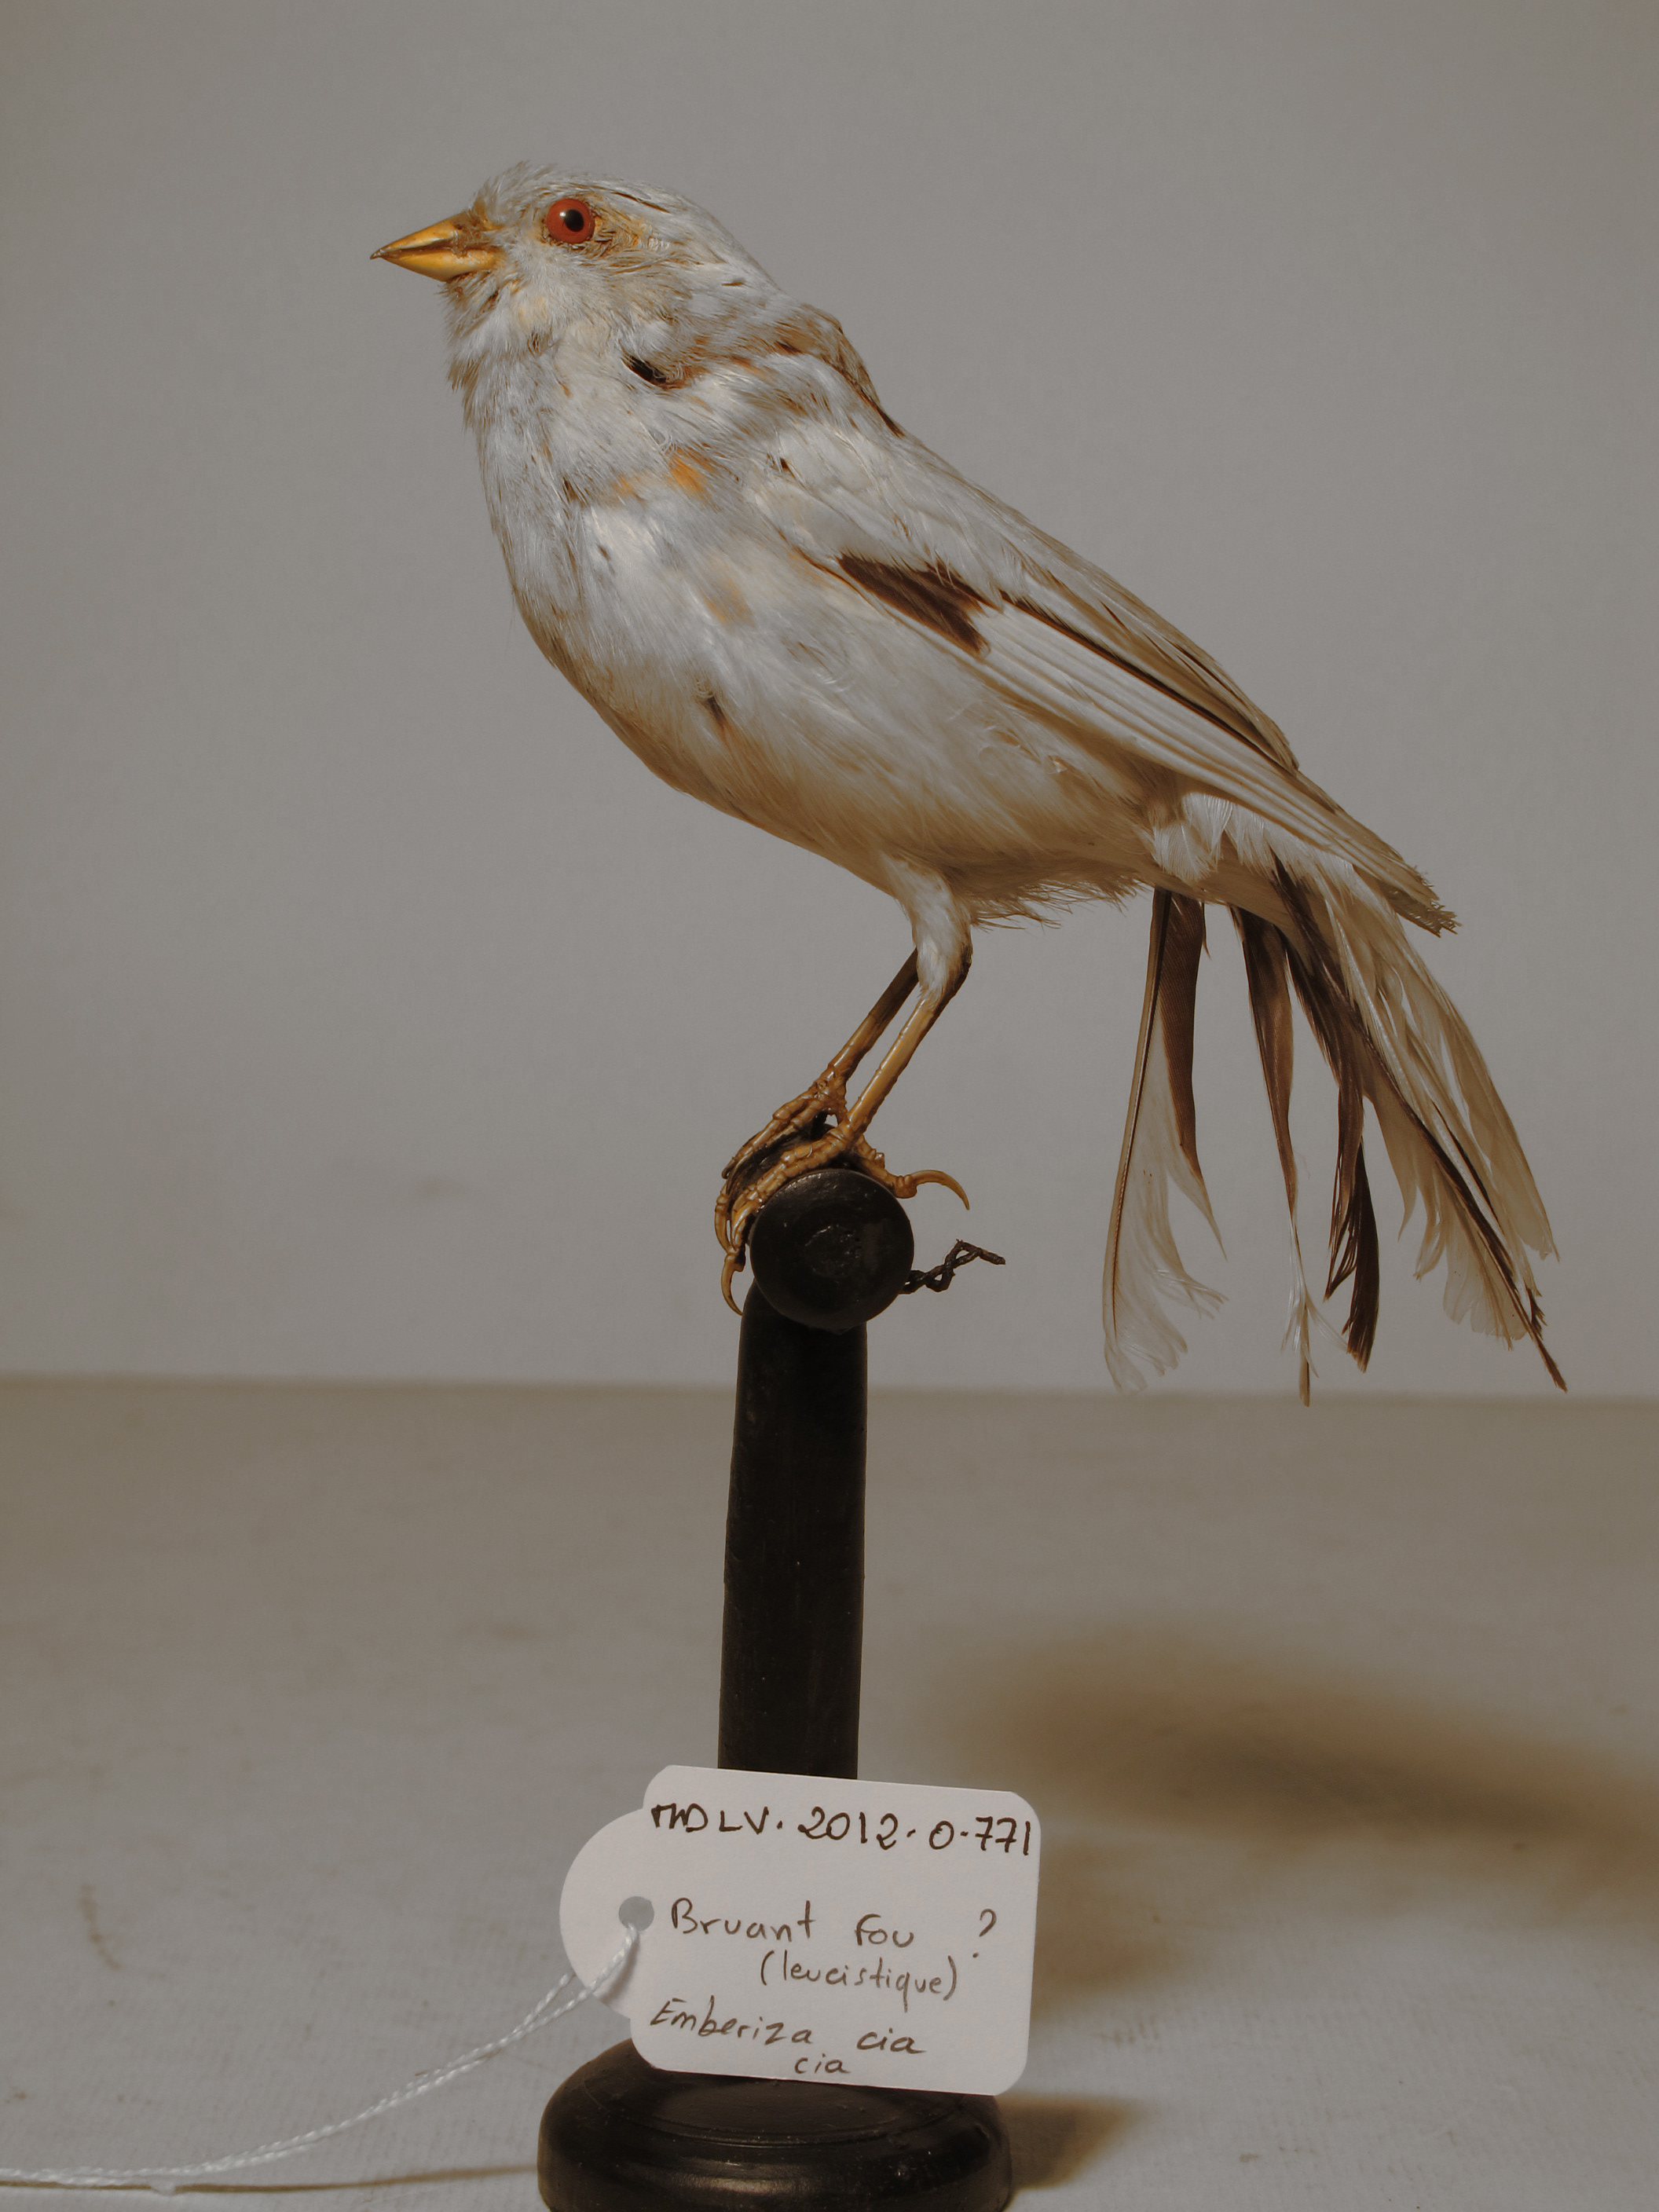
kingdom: Animalia
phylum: Chordata
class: Aves
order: Passeriformes
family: Emberizidae
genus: Emberiza
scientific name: Emberiza
